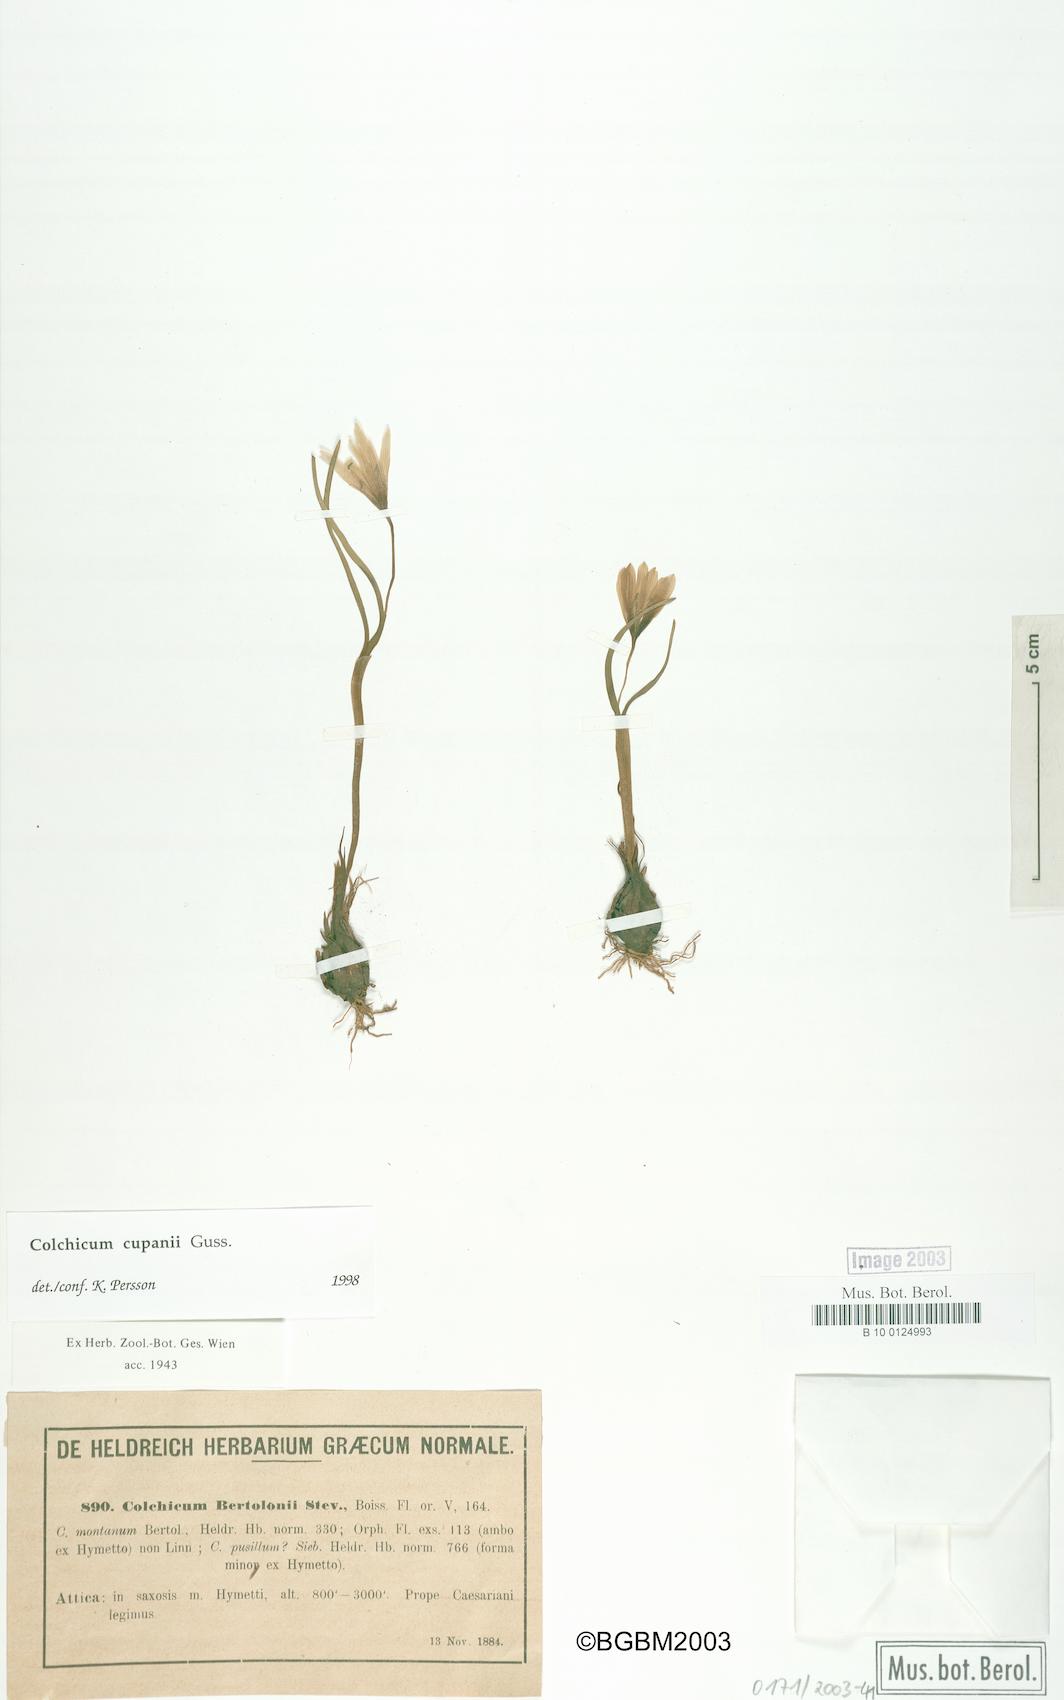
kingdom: Plantae
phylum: Tracheophyta
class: Liliopsida
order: Liliales
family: Colchicaceae
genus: Colchicum
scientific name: Colchicum cupanii
